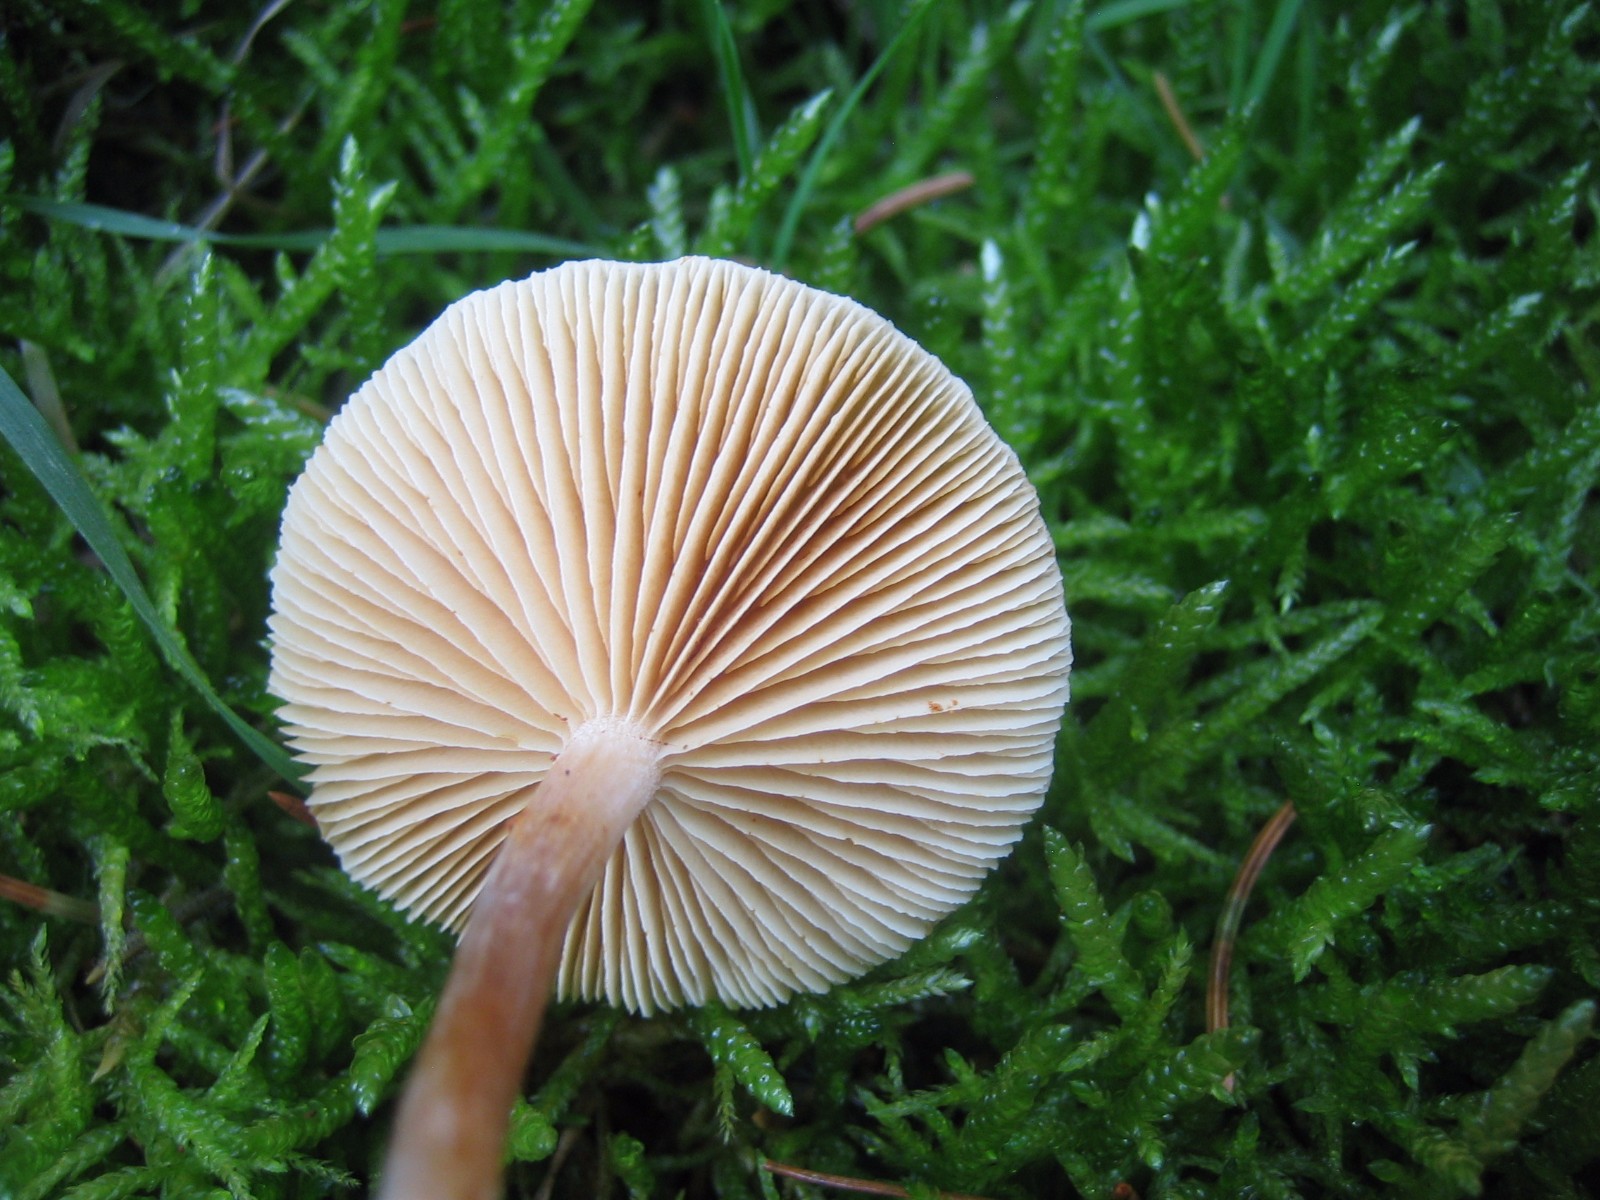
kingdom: Fungi
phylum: Basidiomycota
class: Agaricomycetes
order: Agaricales
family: Hymenogastraceae
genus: Gymnopilus
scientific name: Gymnopilus penetrans
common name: plettet flammehat
